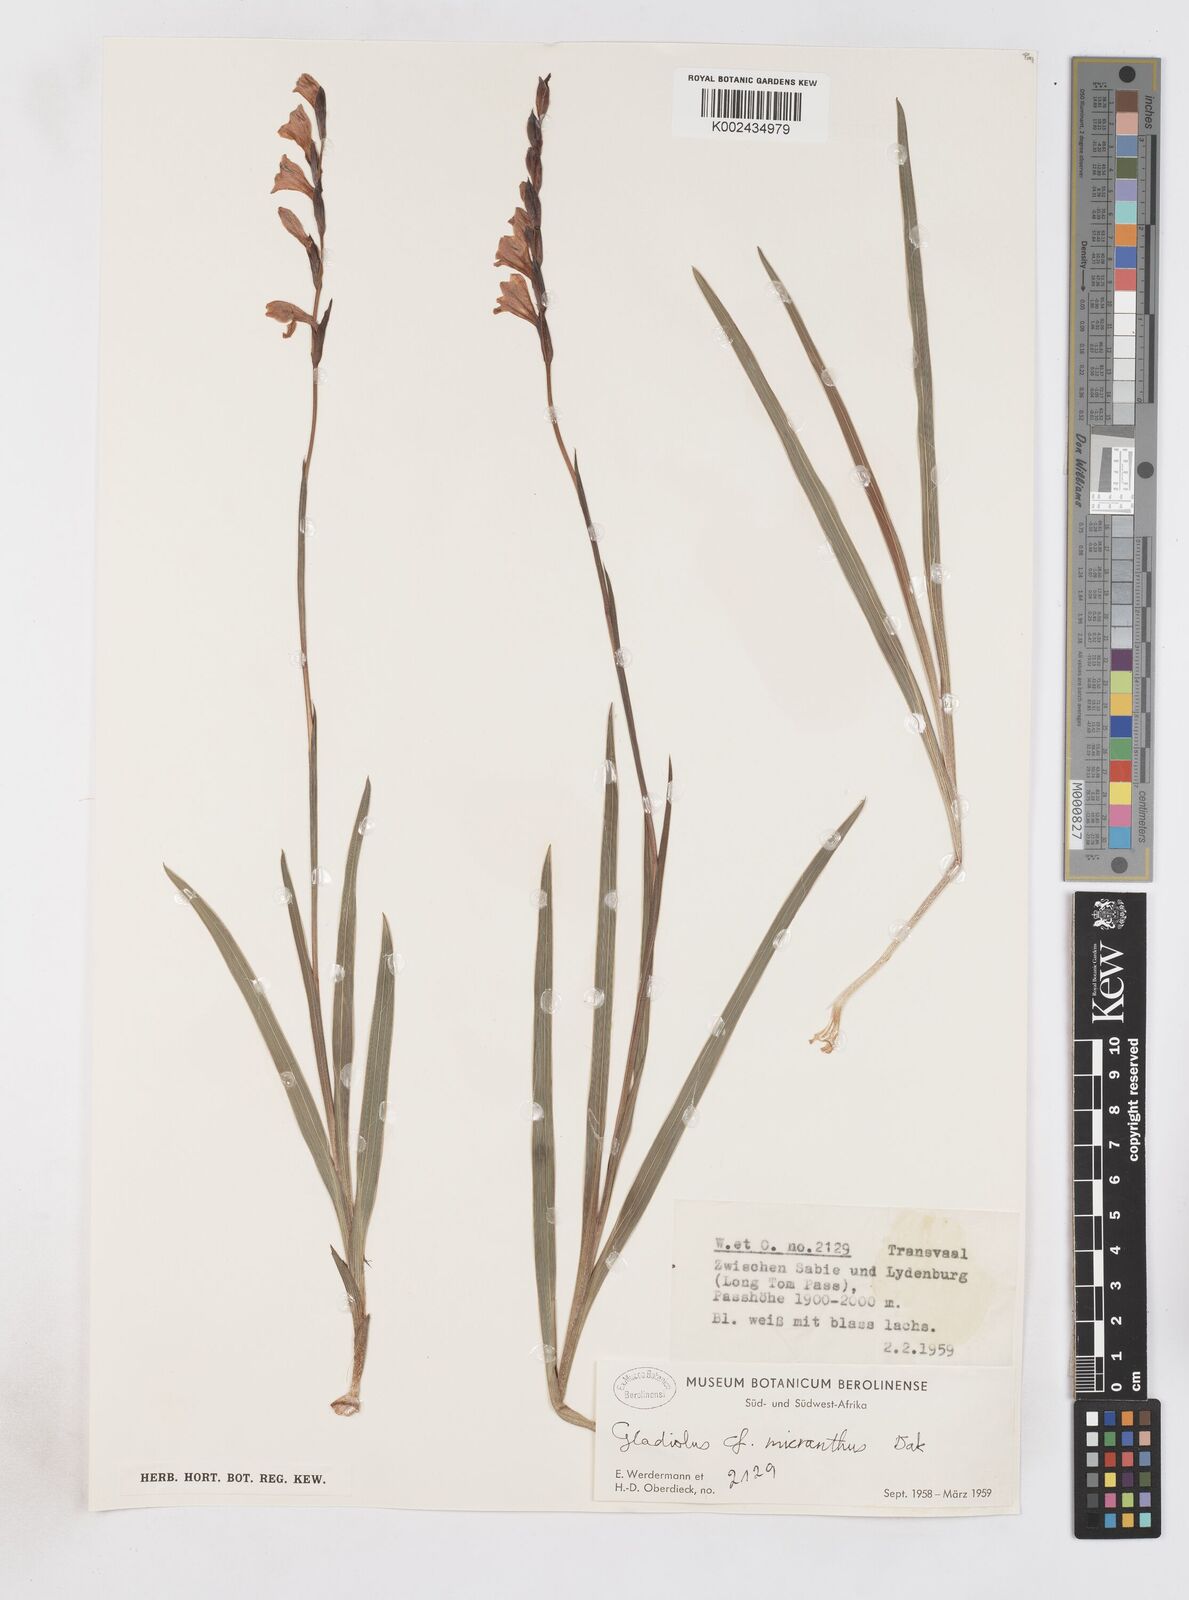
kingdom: Plantae
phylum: Tracheophyta
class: Liliopsida
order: Asparagales
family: Iridaceae
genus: Gladiolus
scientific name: Gladiolus ferrugineus
